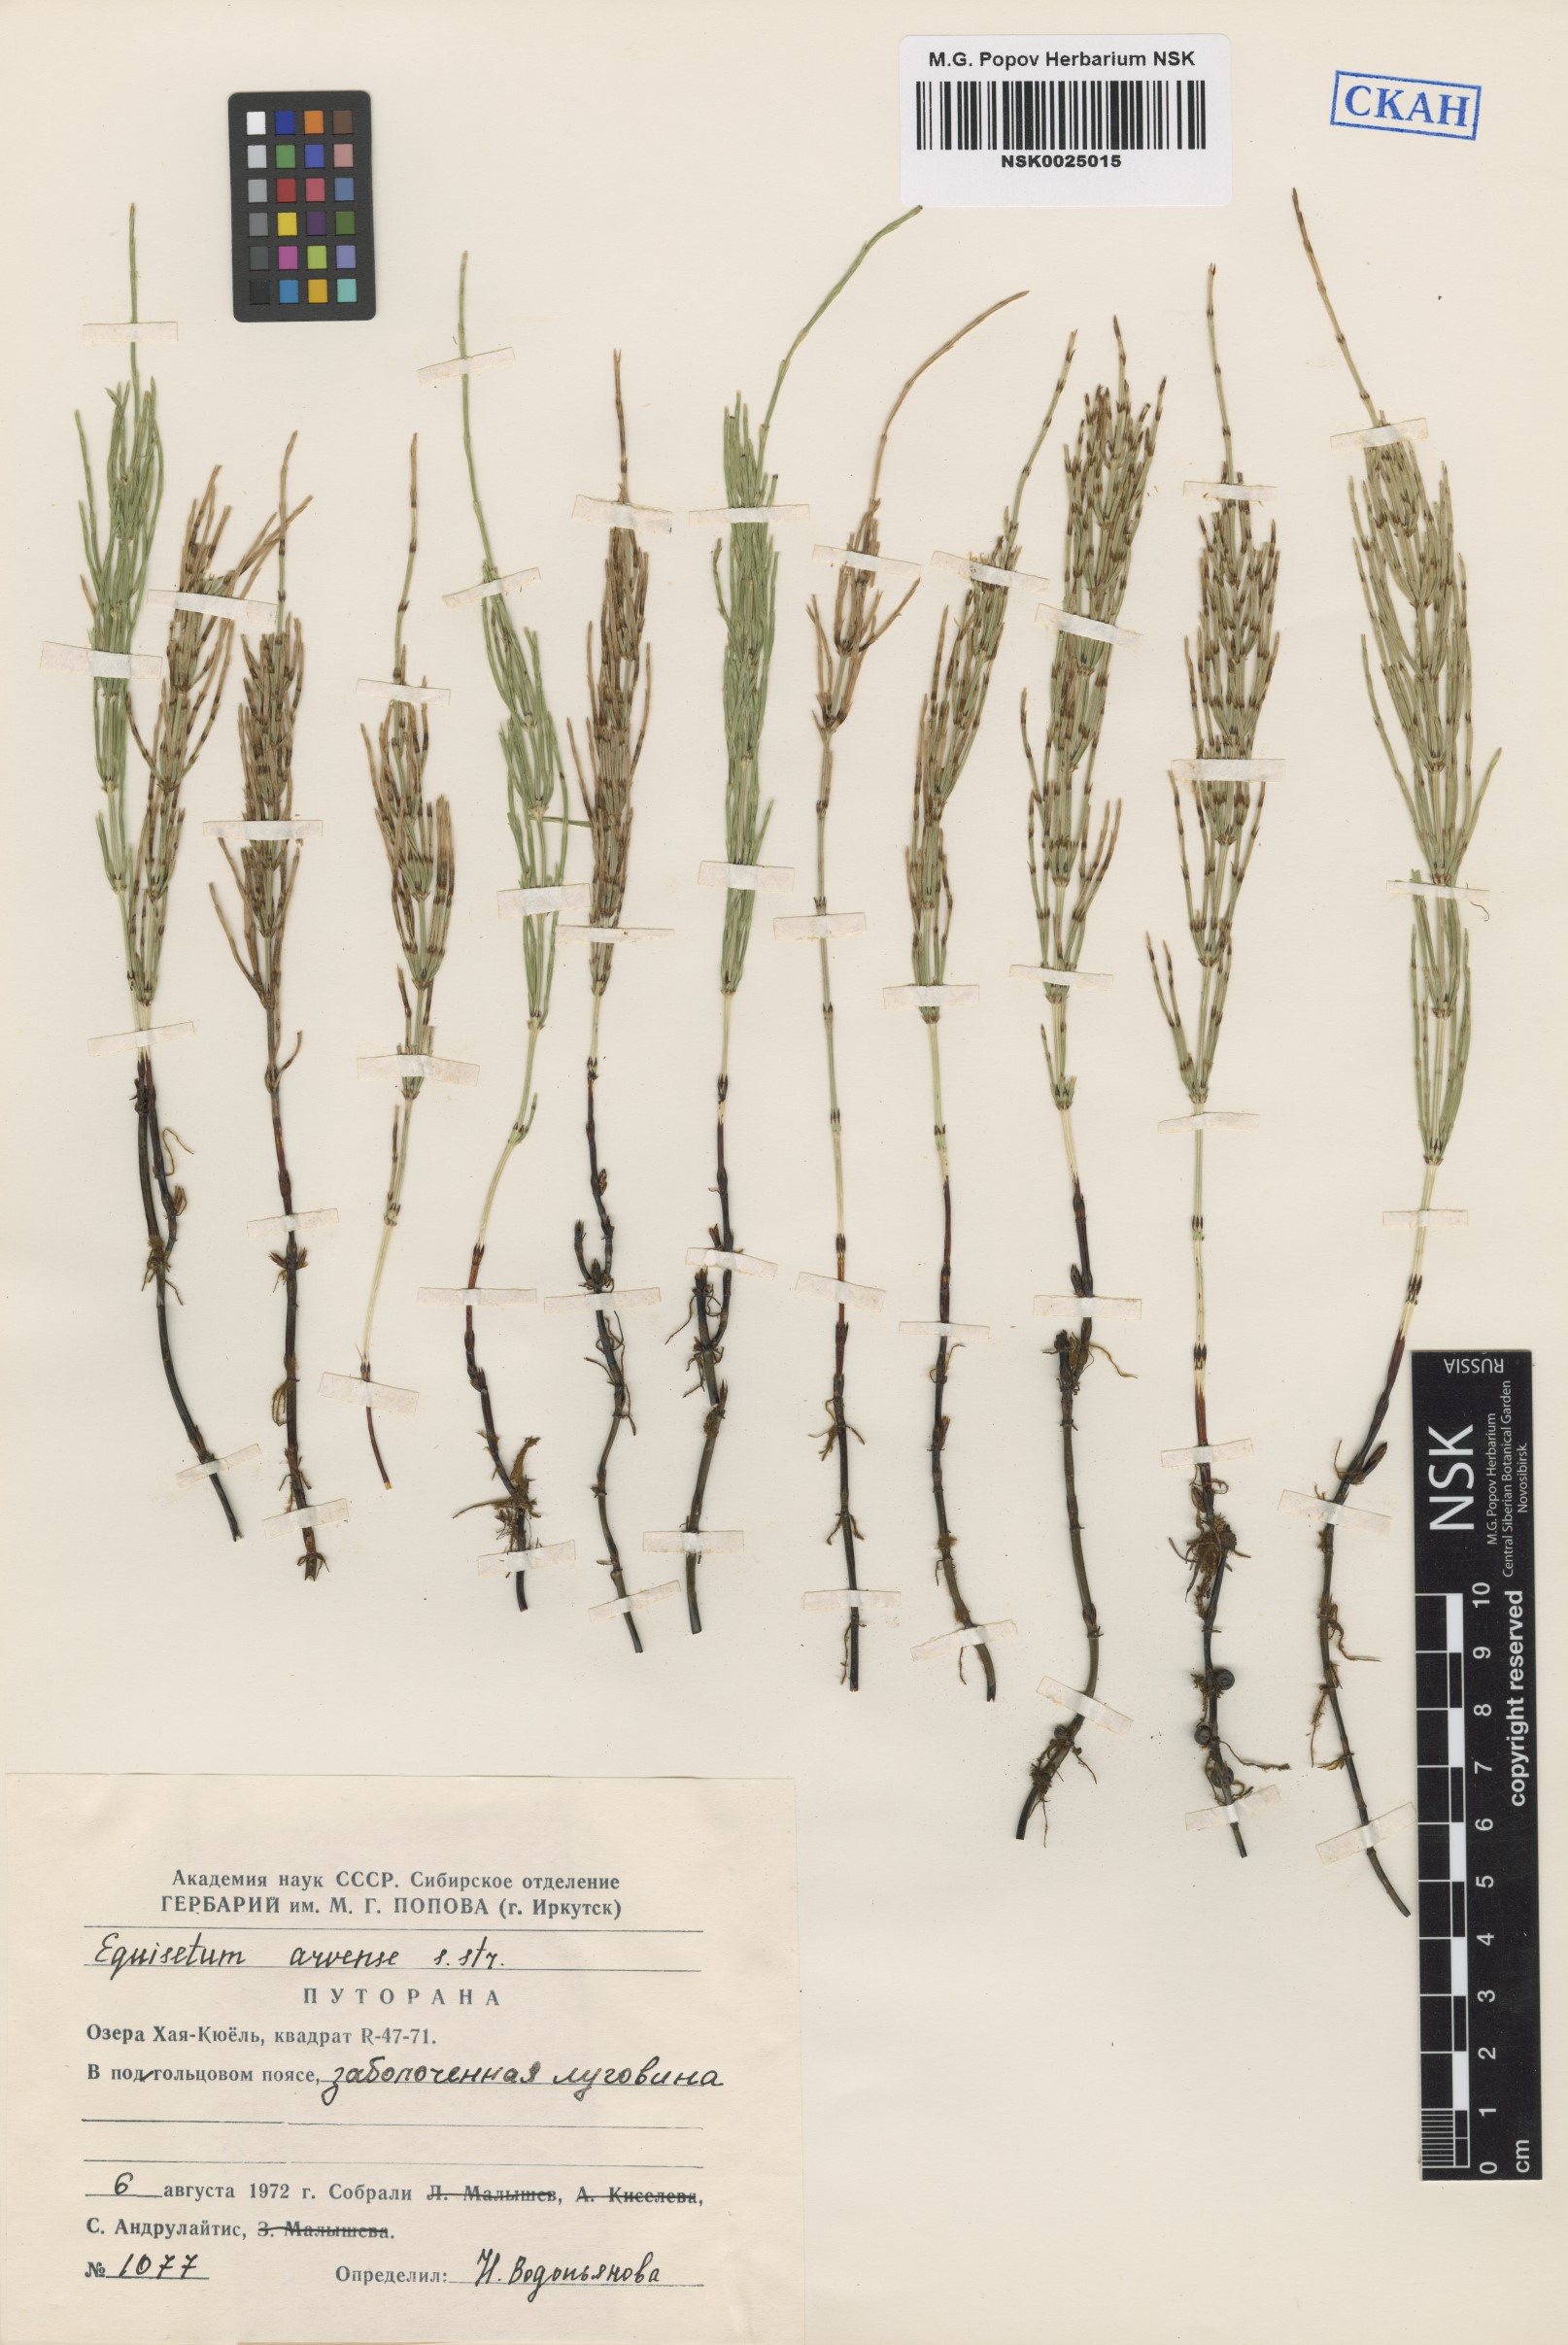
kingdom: Plantae
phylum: Tracheophyta
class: Polypodiopsida
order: Equisetales
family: Equisetaceae
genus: Equisetum
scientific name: Equisetum arvense
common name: Field horsetail
